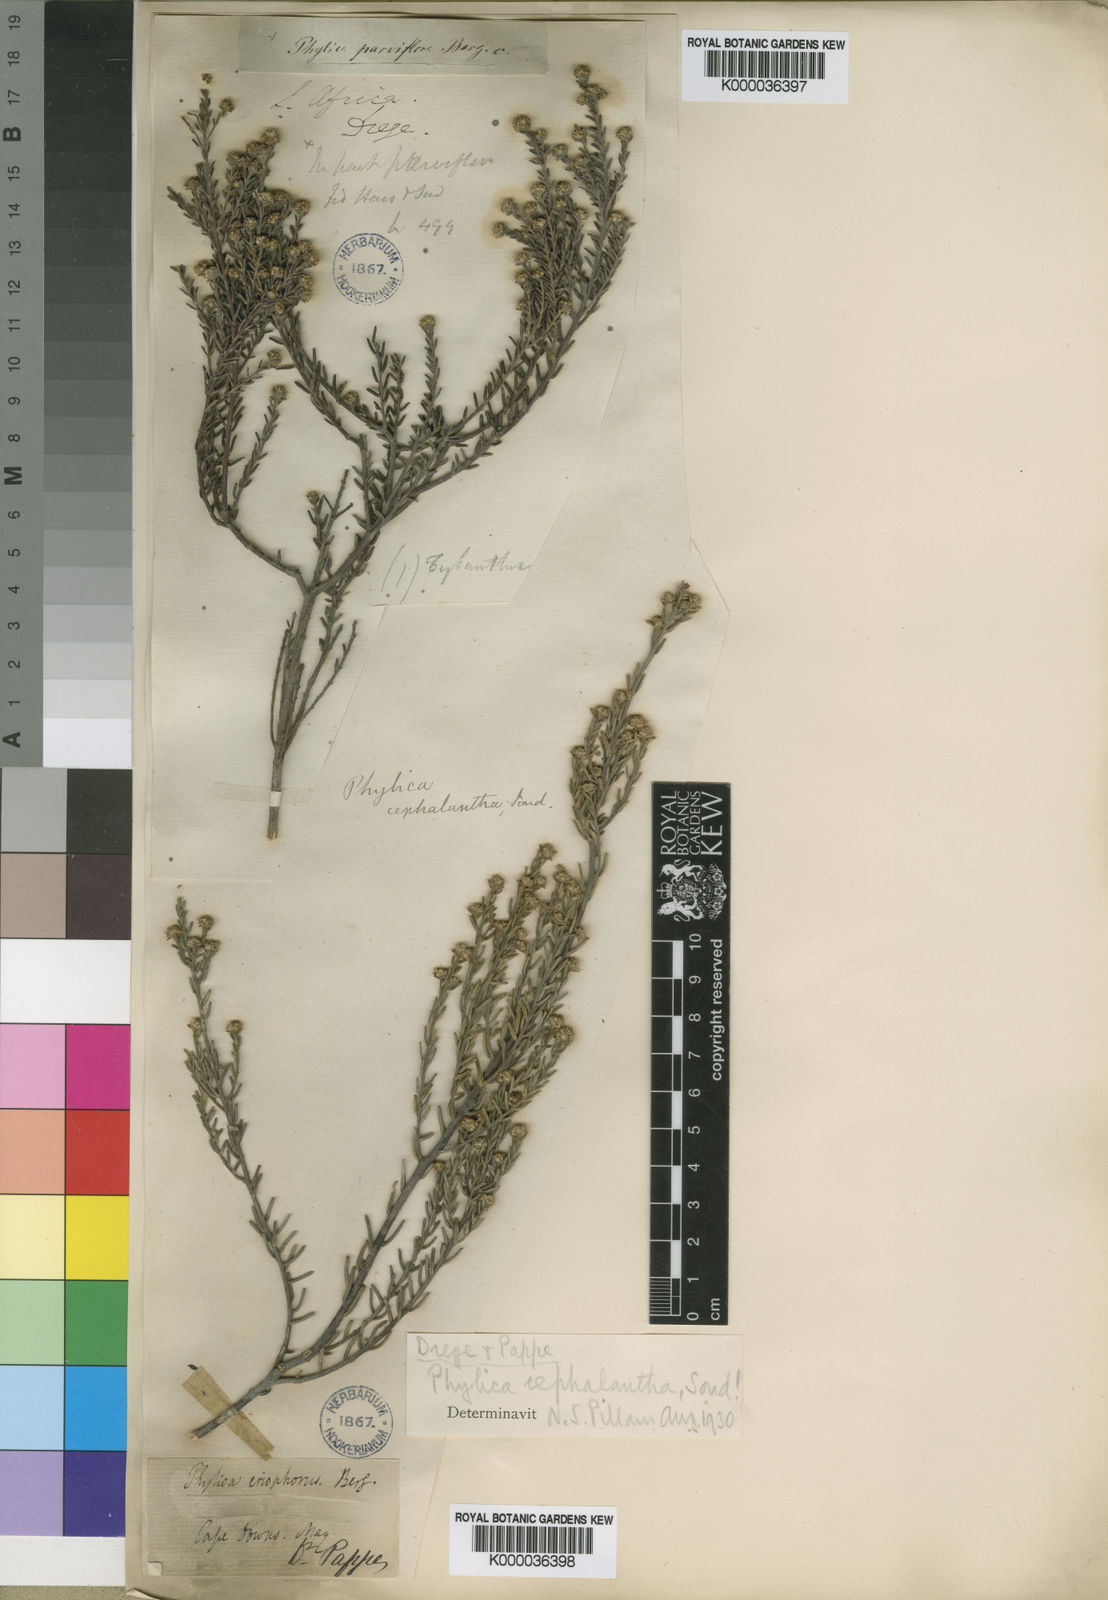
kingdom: Plantae
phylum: Tracheophyta
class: Magnoliopsida
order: Rosales
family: Rhamnaceae
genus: Phylica
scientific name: Phylica cephalantha
